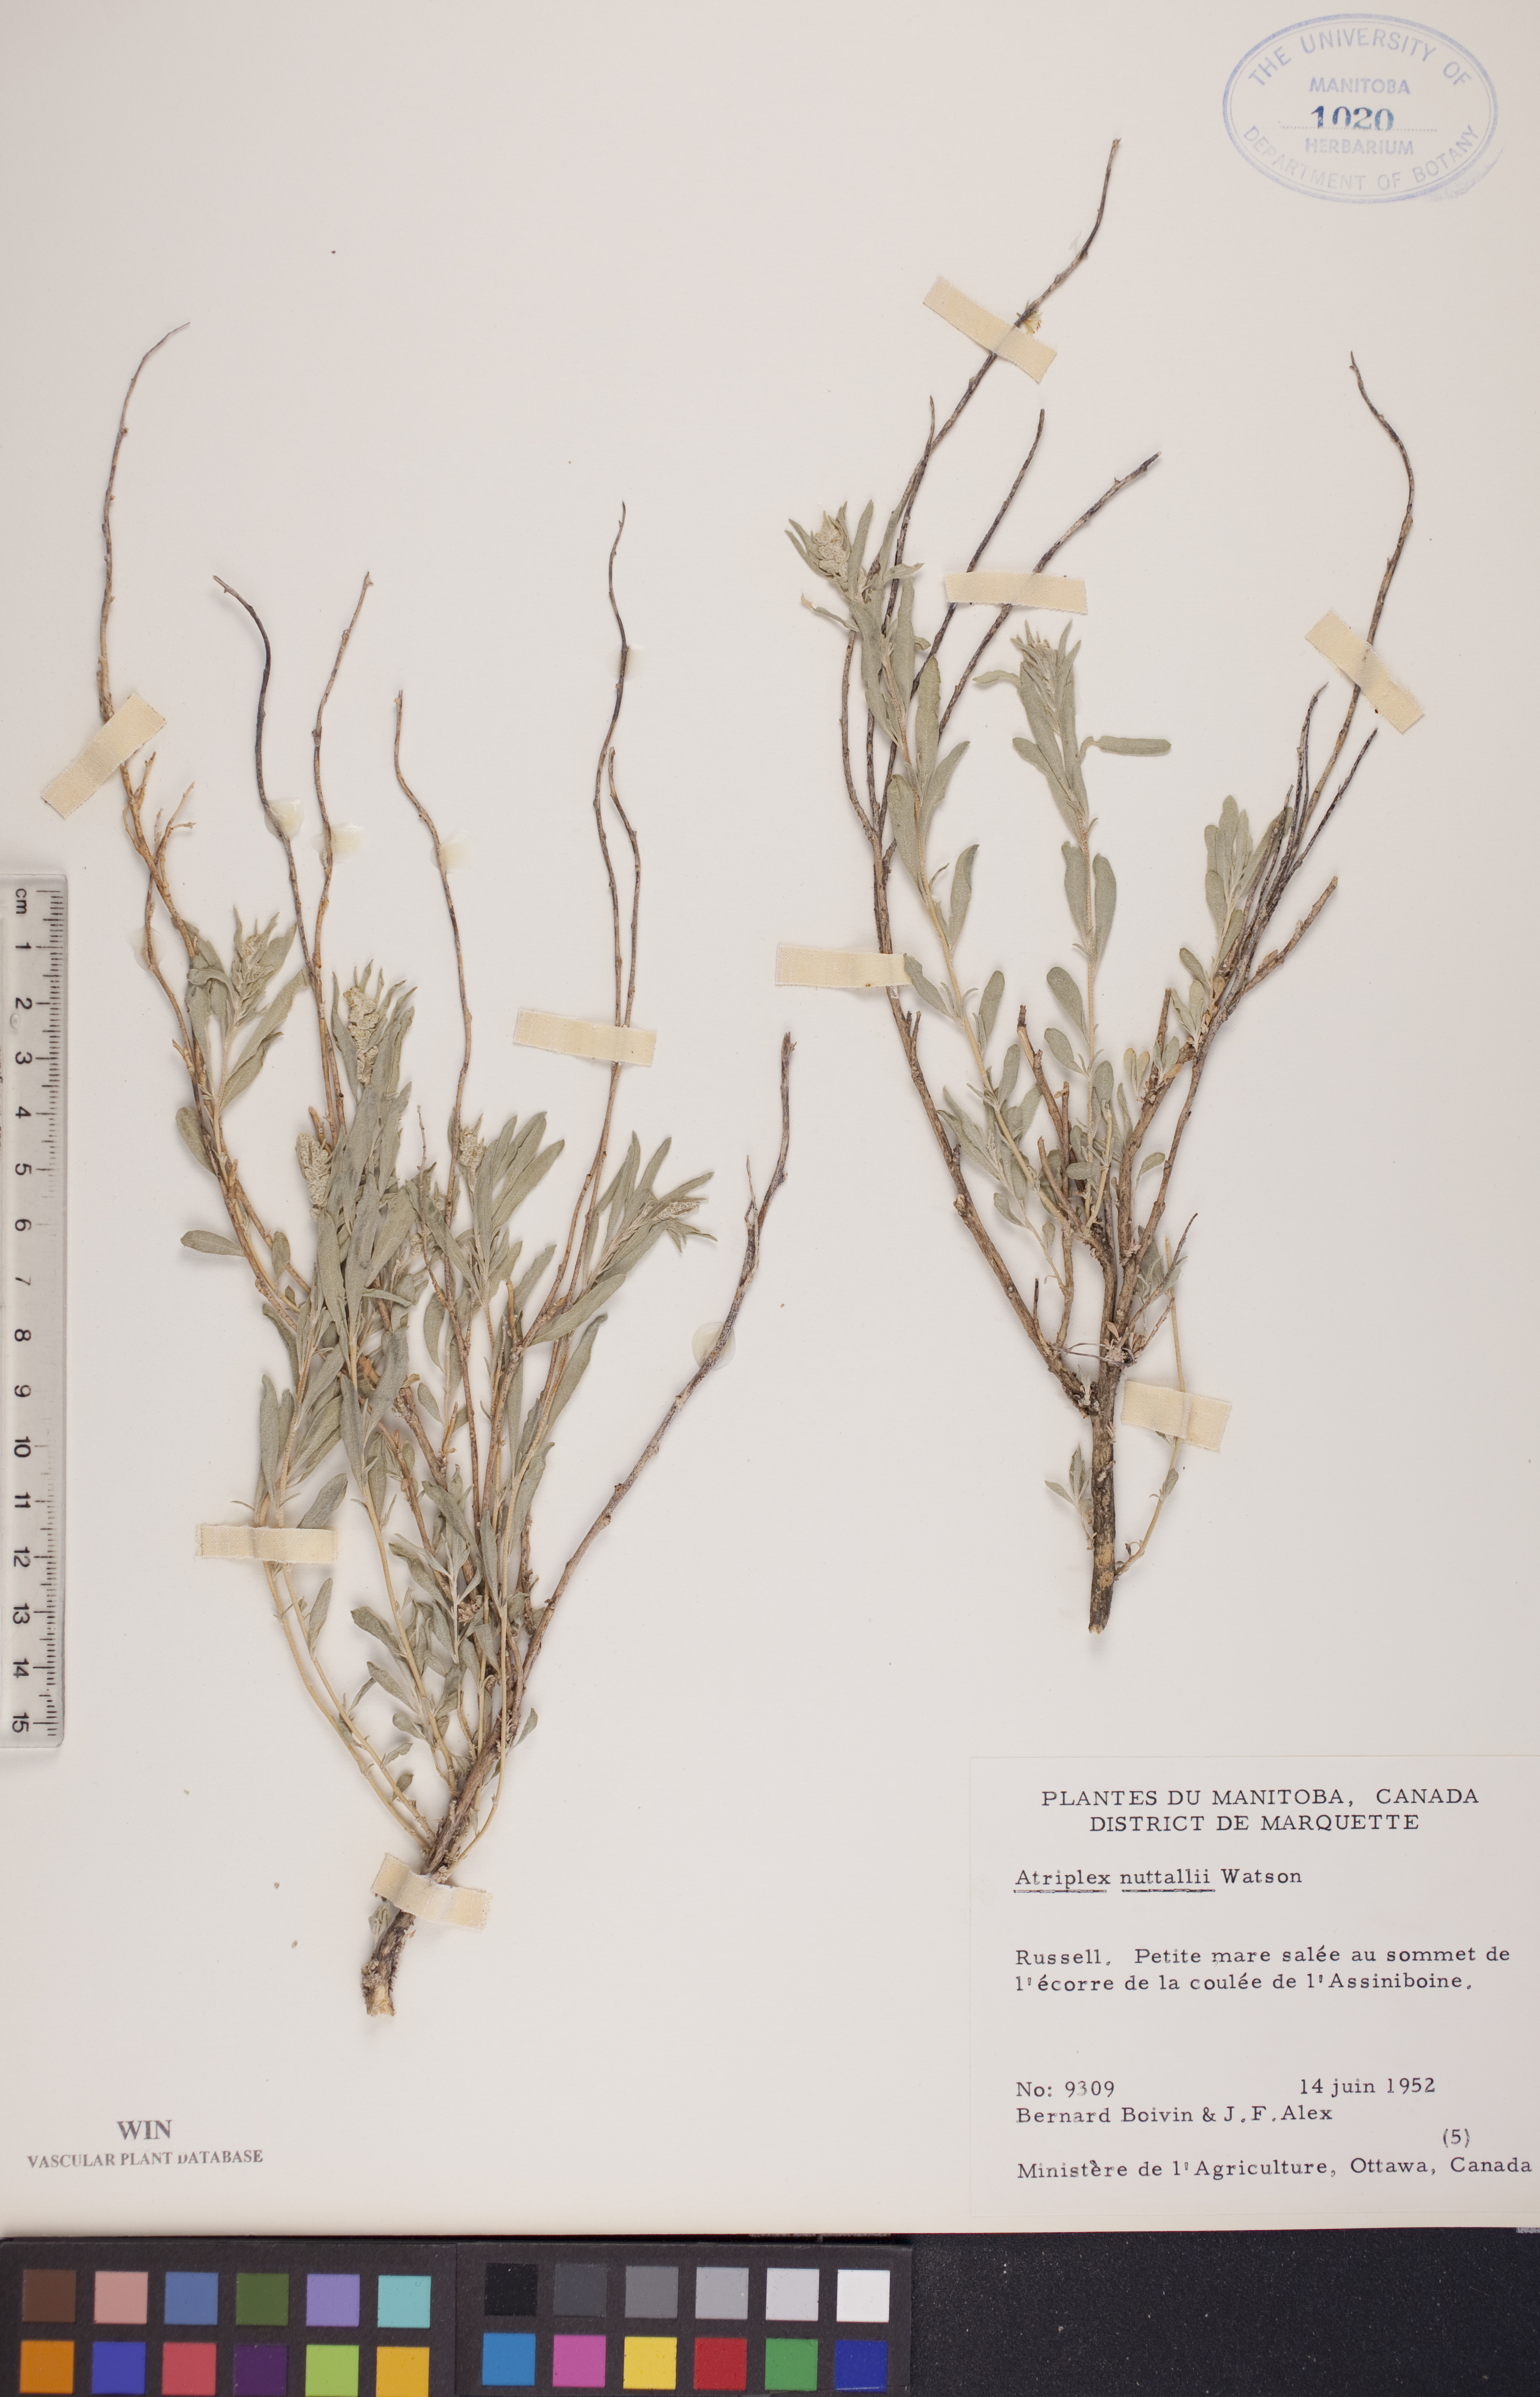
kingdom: Plantae
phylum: Tracheophyta
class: Magnoliopsida
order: Caryophyllales
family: Amaranthaceae
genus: Atriplex
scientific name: Atriplex canescens
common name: Four-wing saltbush
